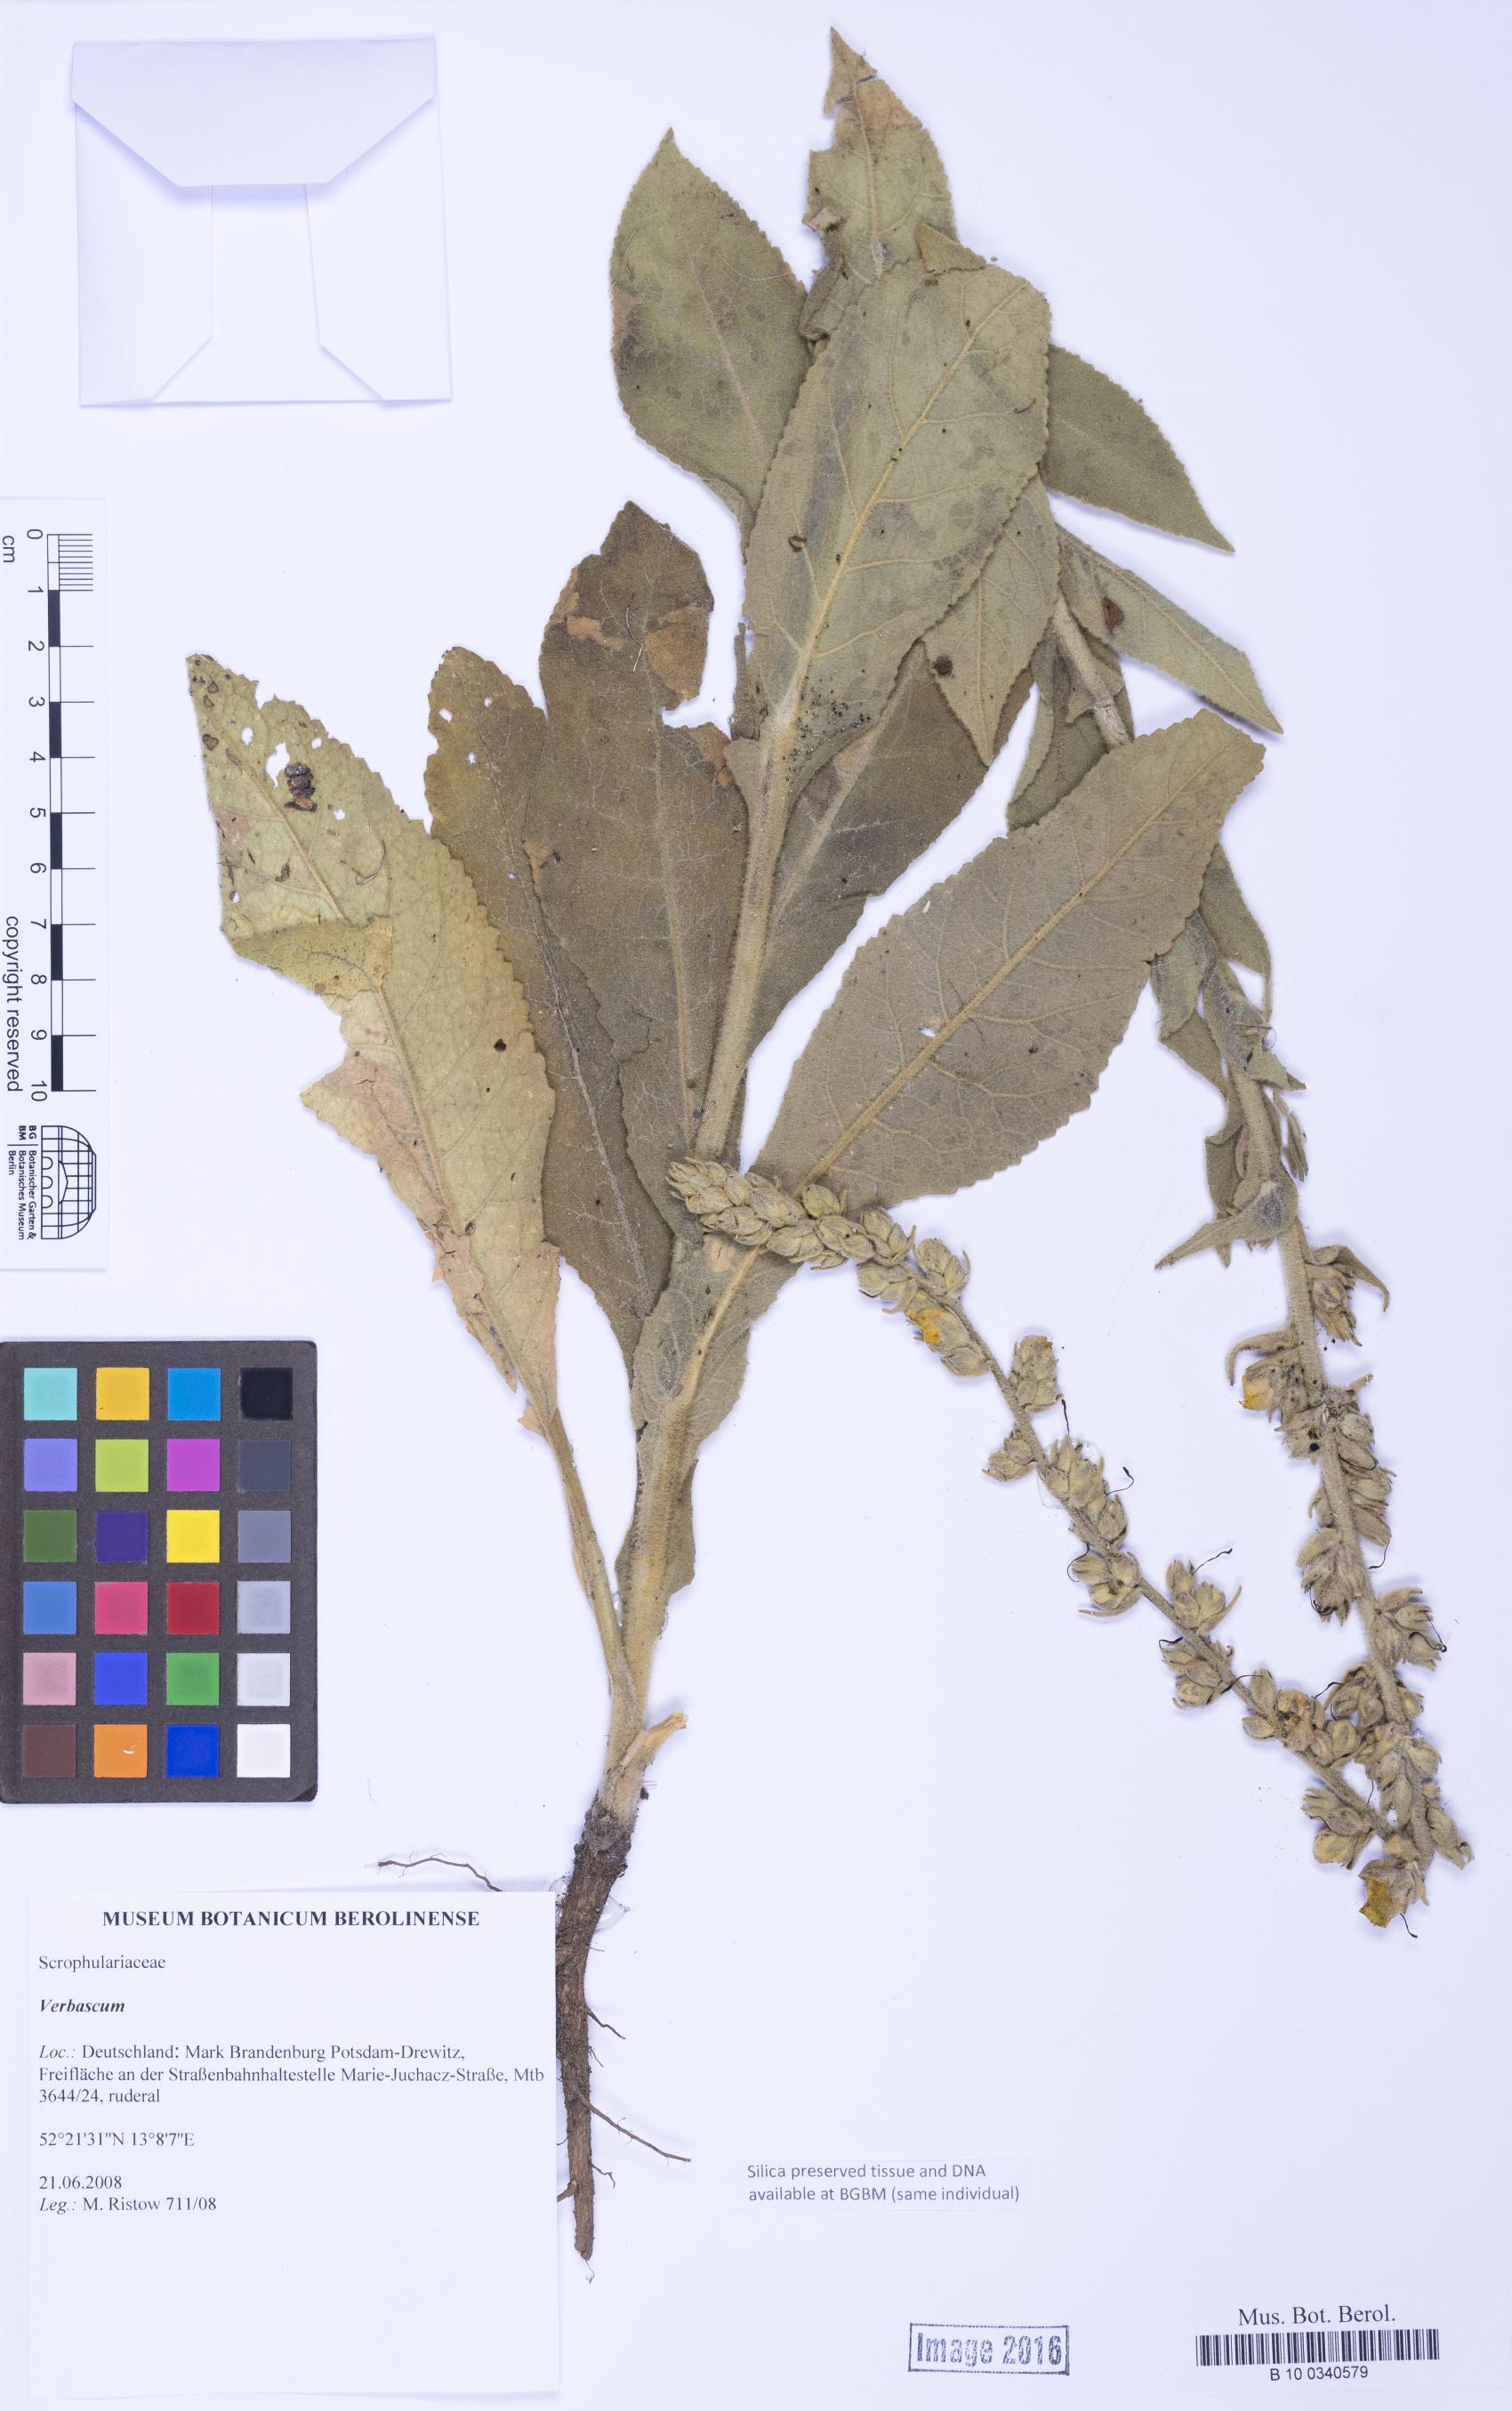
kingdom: Plantae
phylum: Tracheophyta
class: Magnoliopsida
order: Lamiales
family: Scrophulariaceae
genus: Verbascum
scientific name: Verbascum
